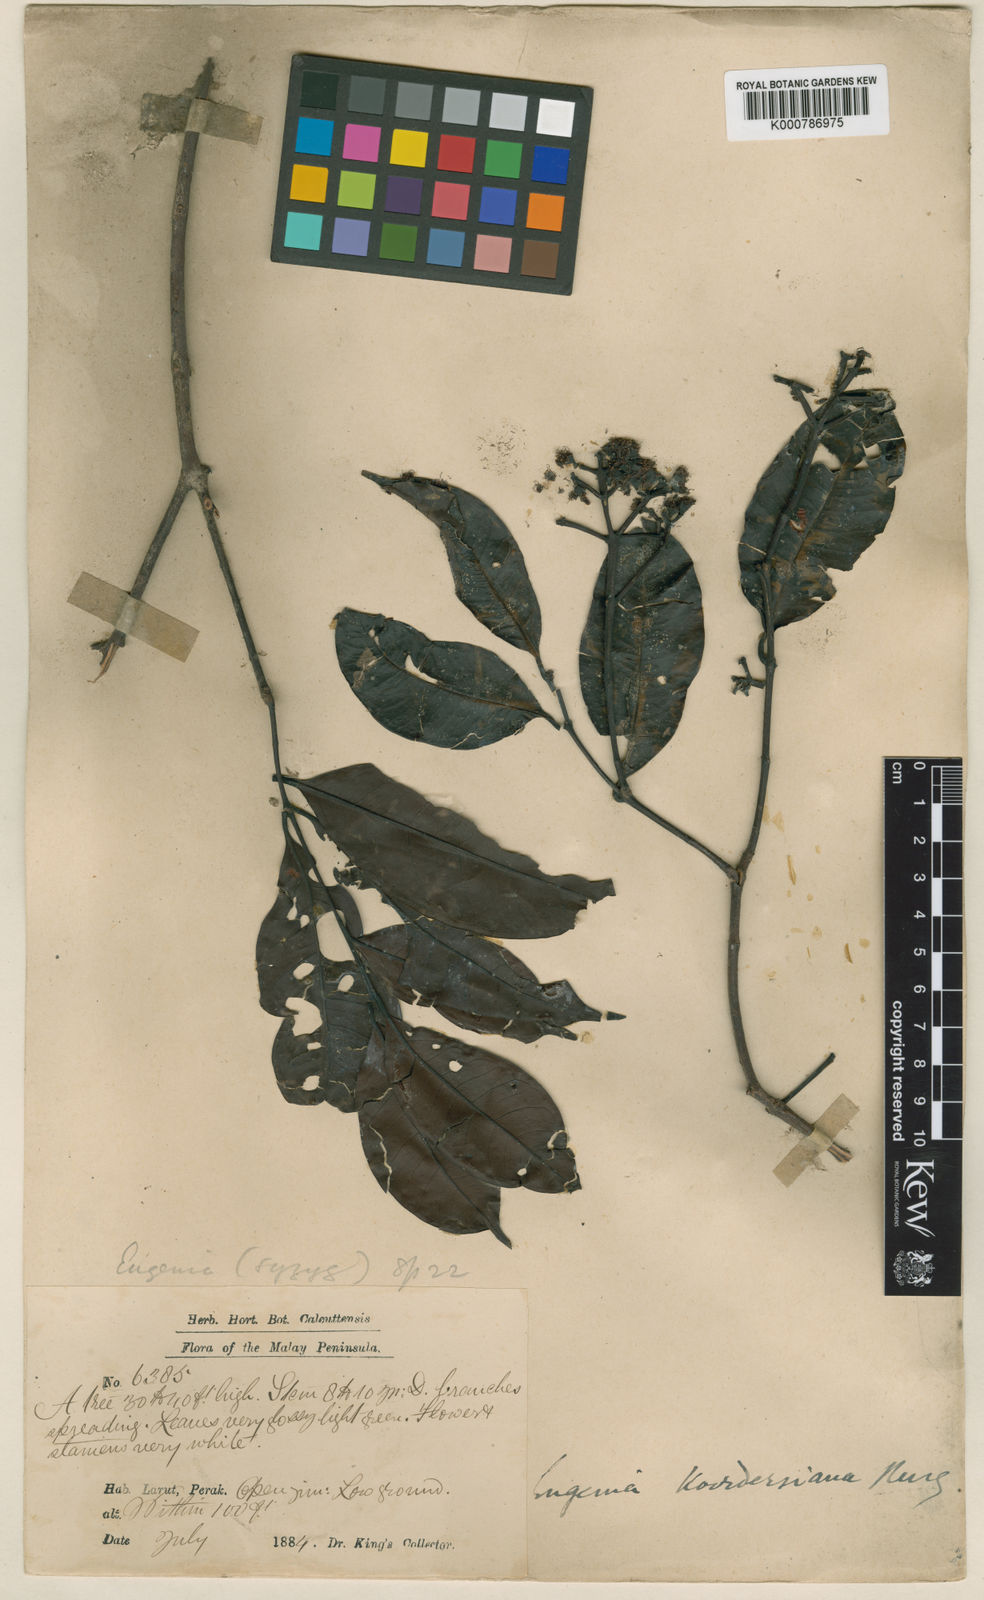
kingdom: Plantae
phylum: Tracheophyta
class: Magnoliopsida
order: Myrtales
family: Myrtaceae
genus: Syzygium
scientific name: Syzygium koordersianum
